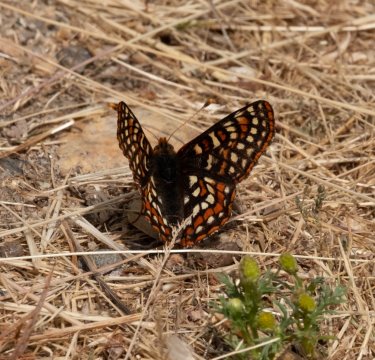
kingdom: Animalia
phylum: Arthropoda
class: Insecta
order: Lepidoptera
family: Nymphalidae
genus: Occidryas
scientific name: Occidryas anicia
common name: Anicia Checkerspot
